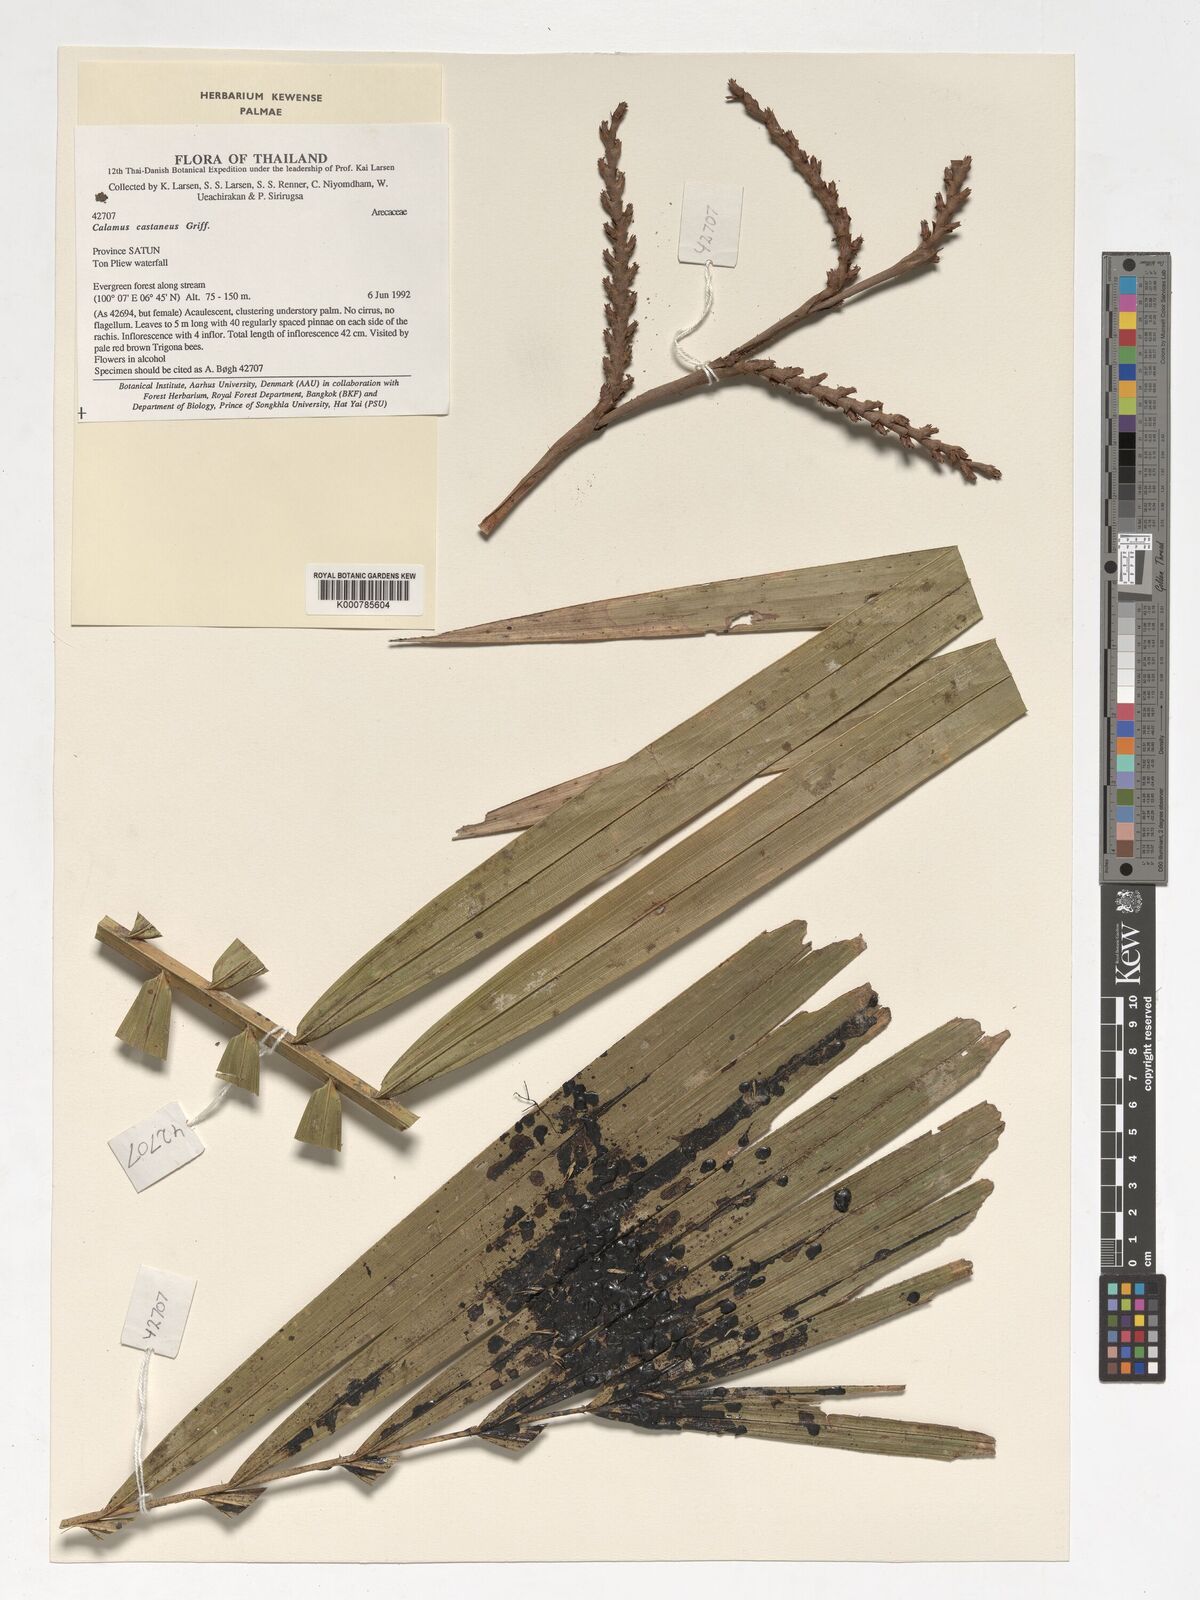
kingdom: Plantae
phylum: Tracheophyta
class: Liliopsida
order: Arecales
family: Arecaceae
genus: Calamus
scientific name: Calamus castaneus
